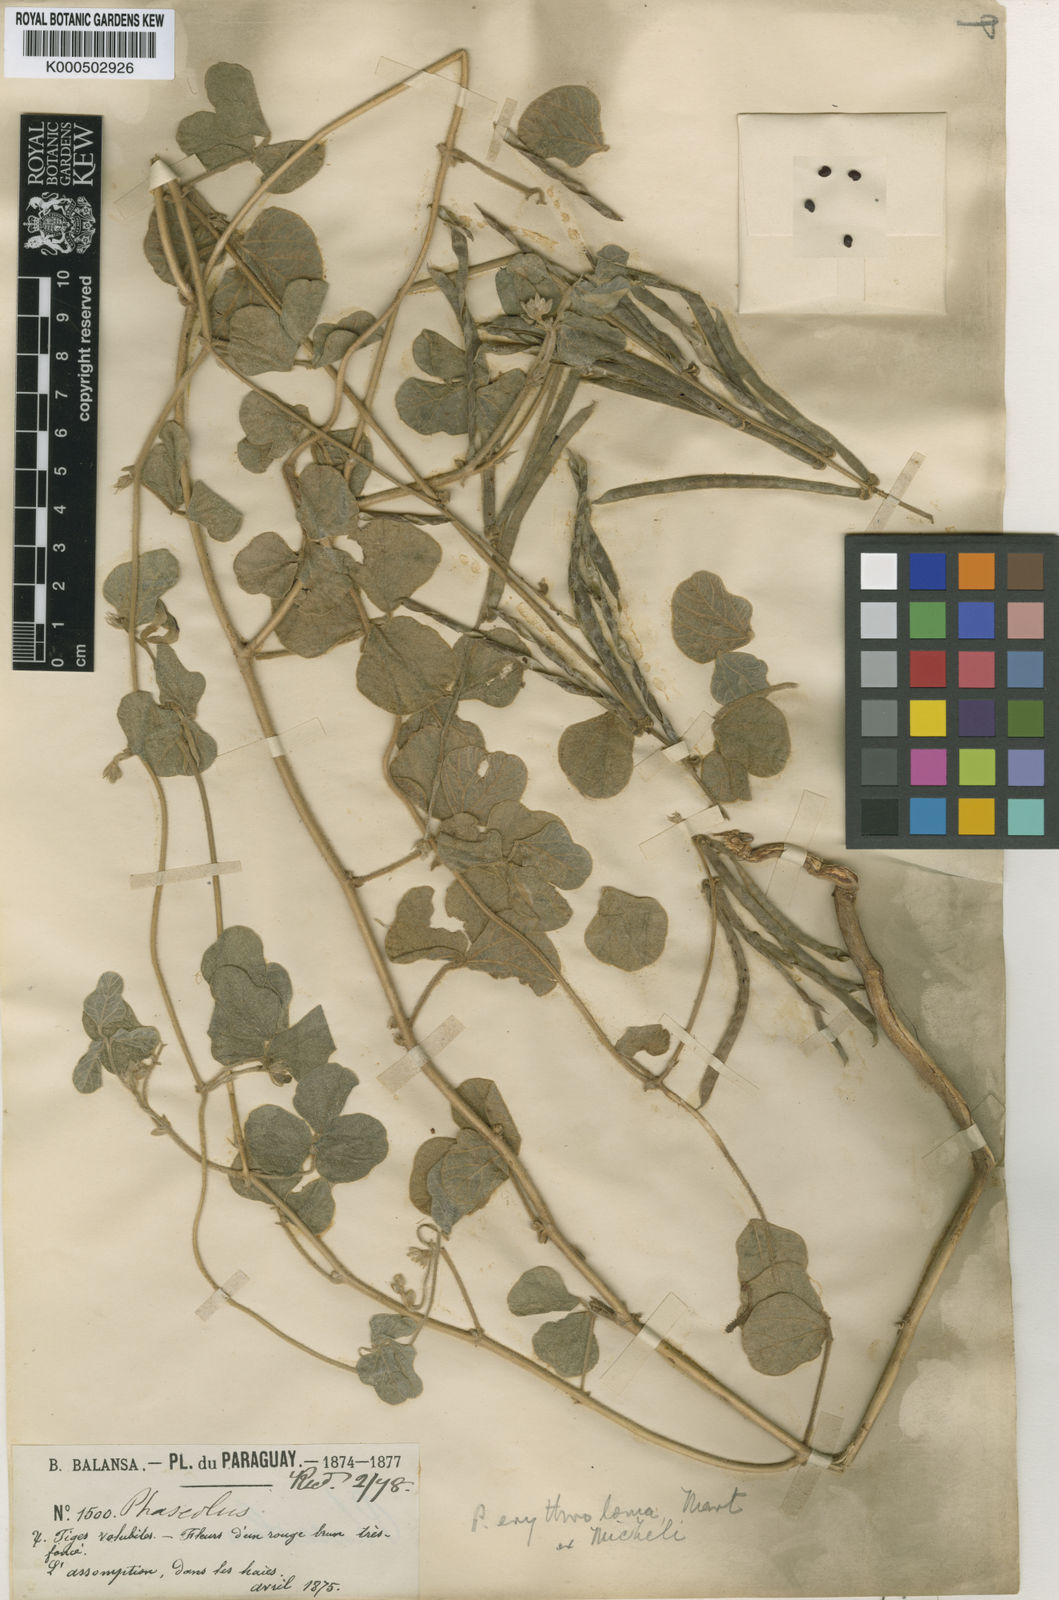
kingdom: Plantae
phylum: Tracheophyta
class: Magnoliopsida
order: Fabales
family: Fabaceae
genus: Macroptilium
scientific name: Macroptilium
